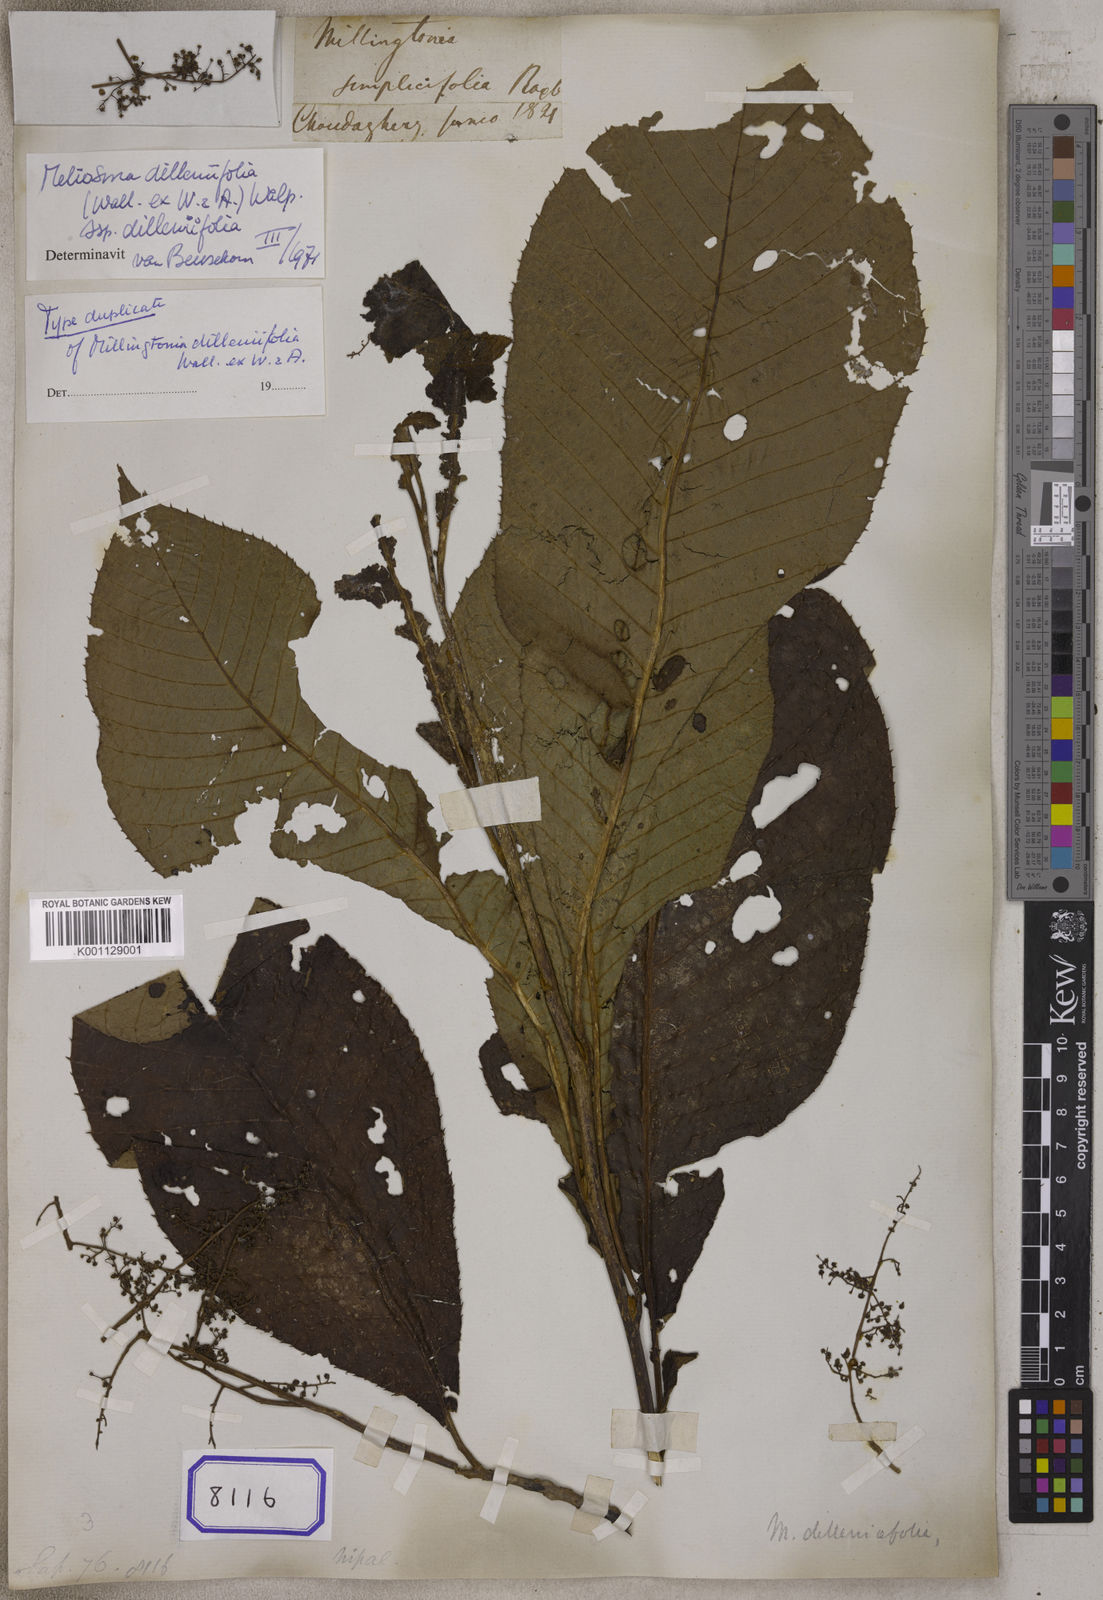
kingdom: Plantae
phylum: Tracheophyta
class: Magnoliopsida
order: Lamiales
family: Bignoniaceae
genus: Millingtonia
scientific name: Millingtonia
